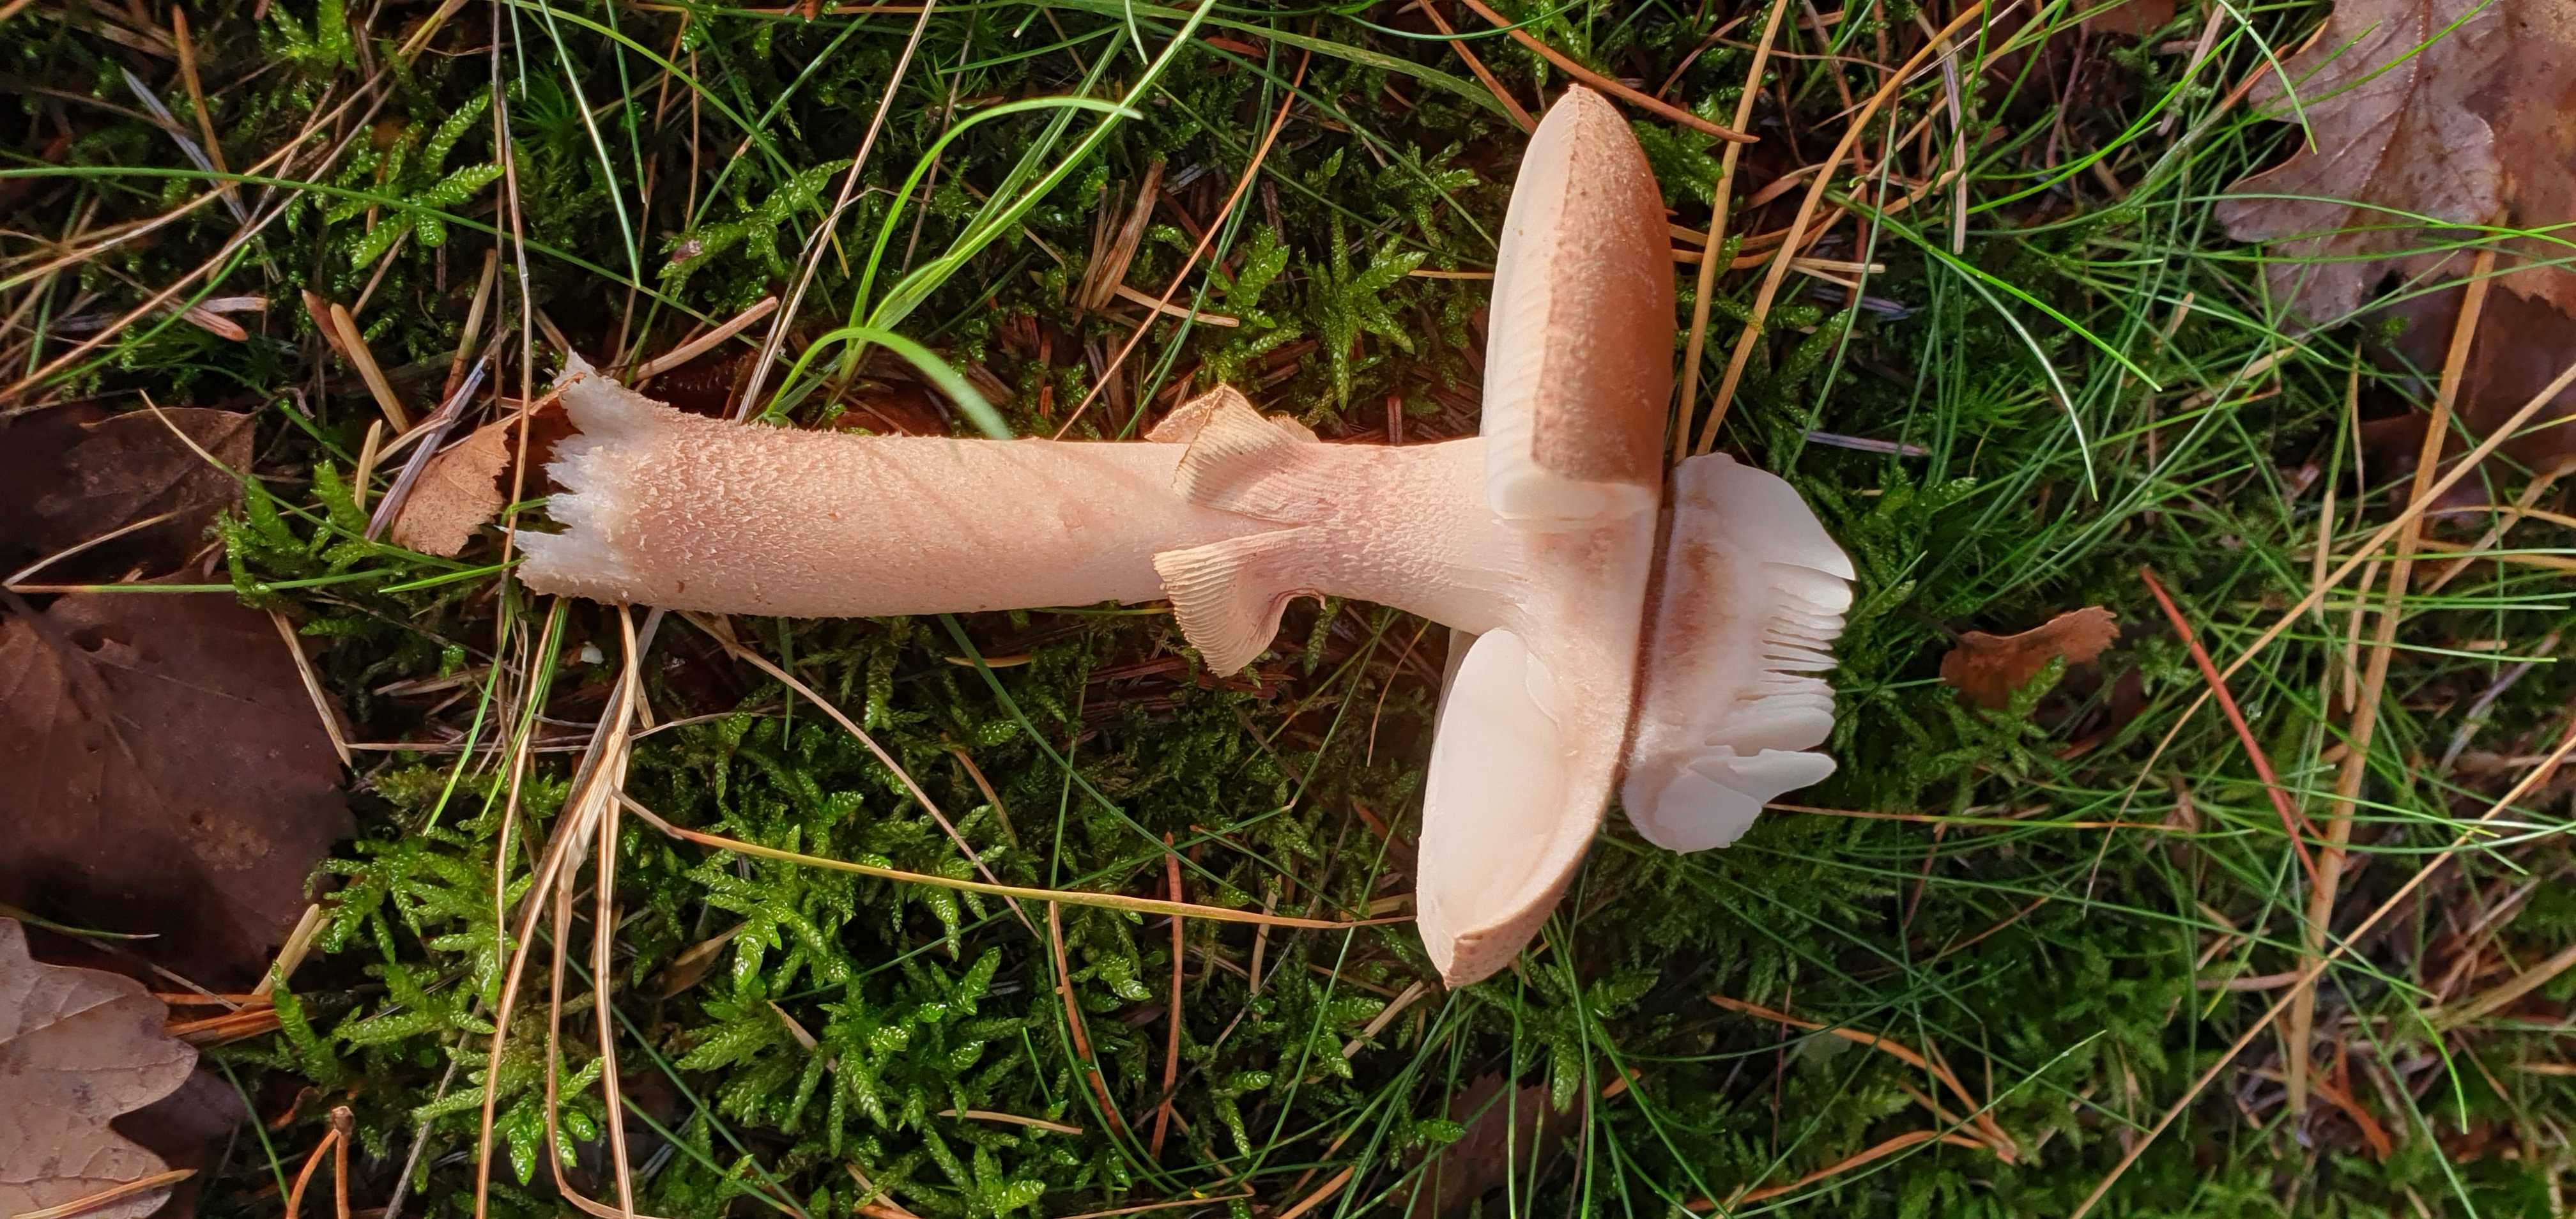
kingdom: Fungi
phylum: Basidiomycota
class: Agaricomycetes
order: Agaricales
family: Amanitaceae
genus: Amanita
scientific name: Amanita rubescens
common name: rødmende fluesvamp
